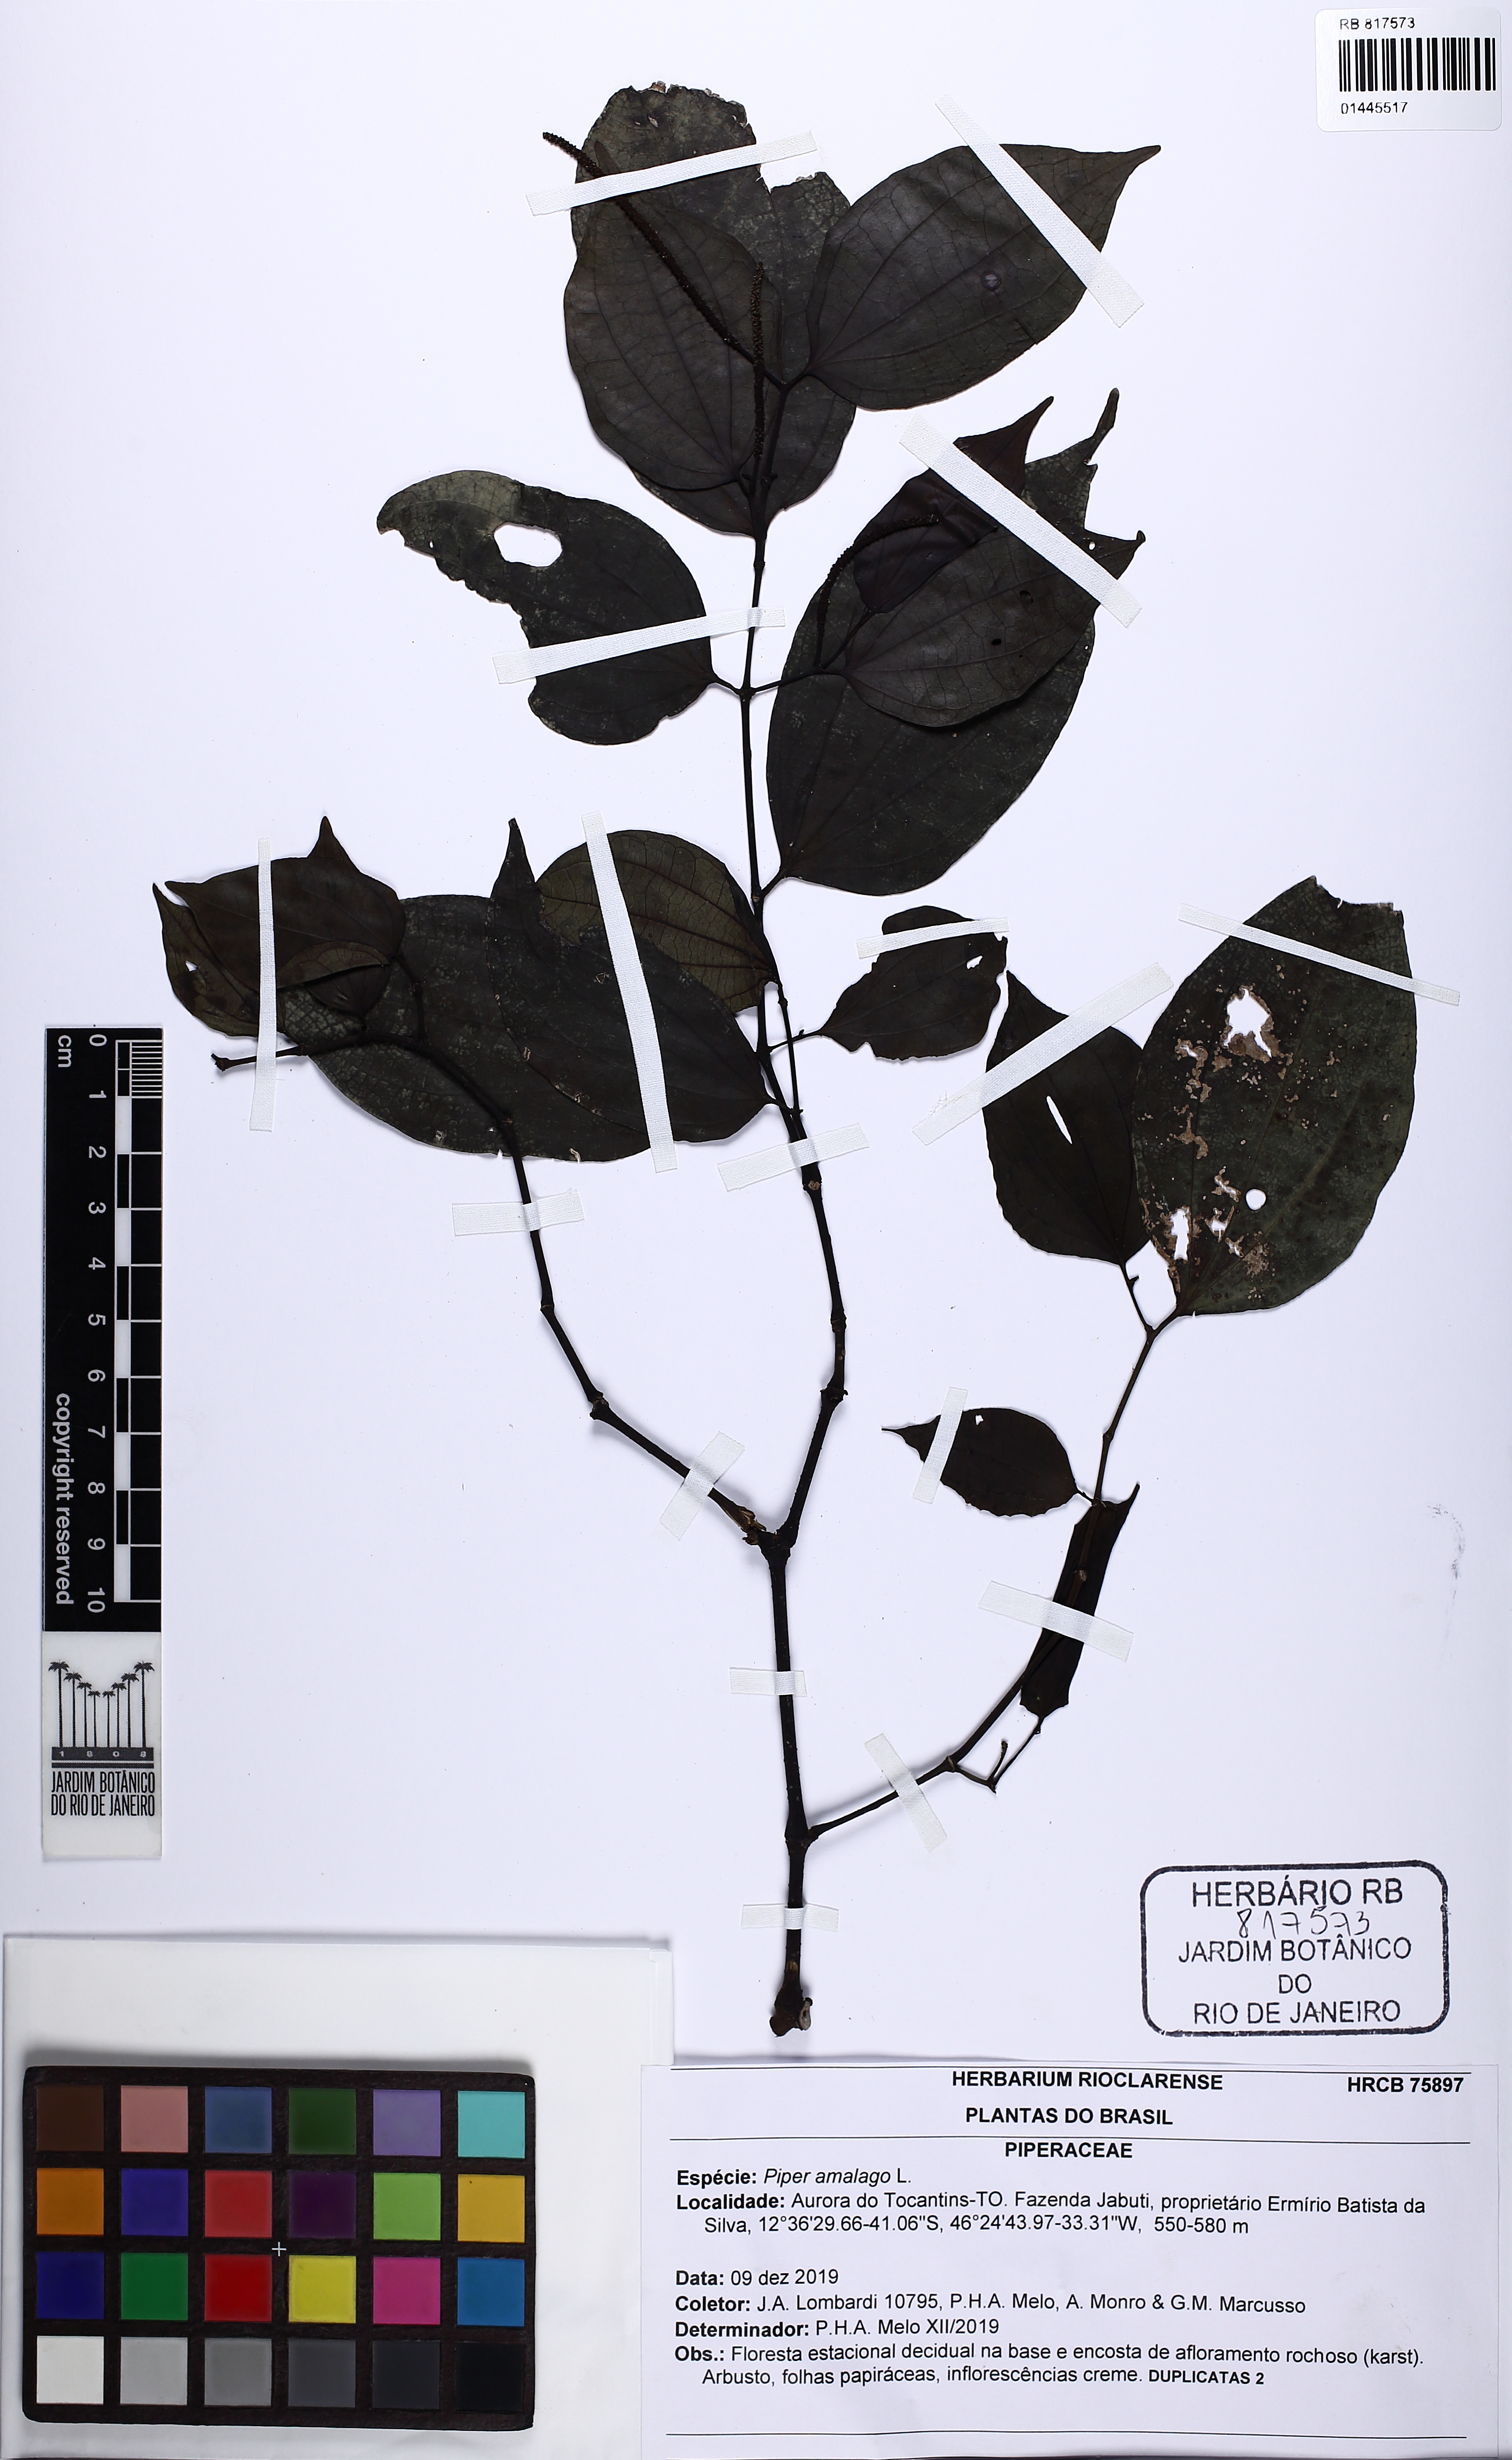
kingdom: Plantae
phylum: Tracheophyta
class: Magnoliopsida
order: Piperales
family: Piperaceae
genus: Piper
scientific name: Piper amalago
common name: Pepper-elder
